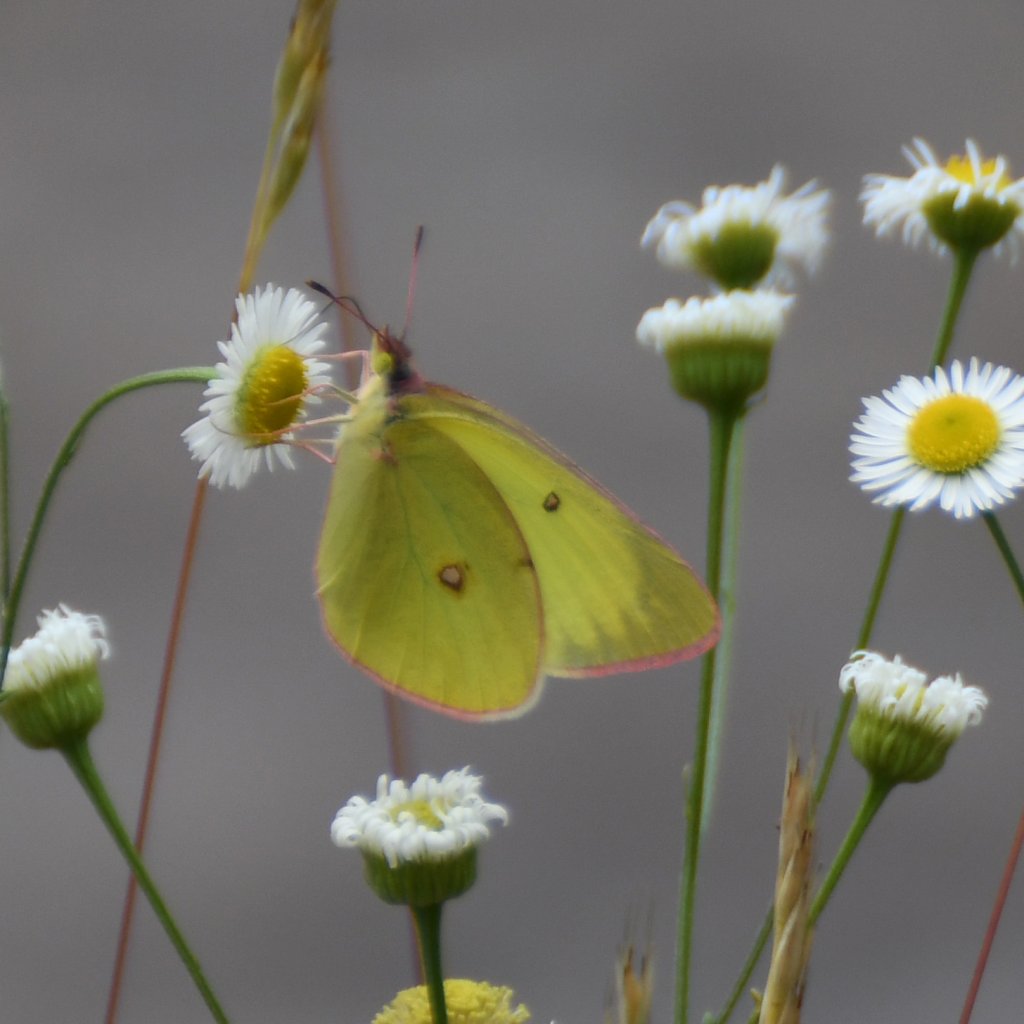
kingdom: Animalia
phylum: Arthropoda
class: Insecta
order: Lepidoptera
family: Pieridae
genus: Colias
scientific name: Colias interior
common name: Pink-edged Sulphur
